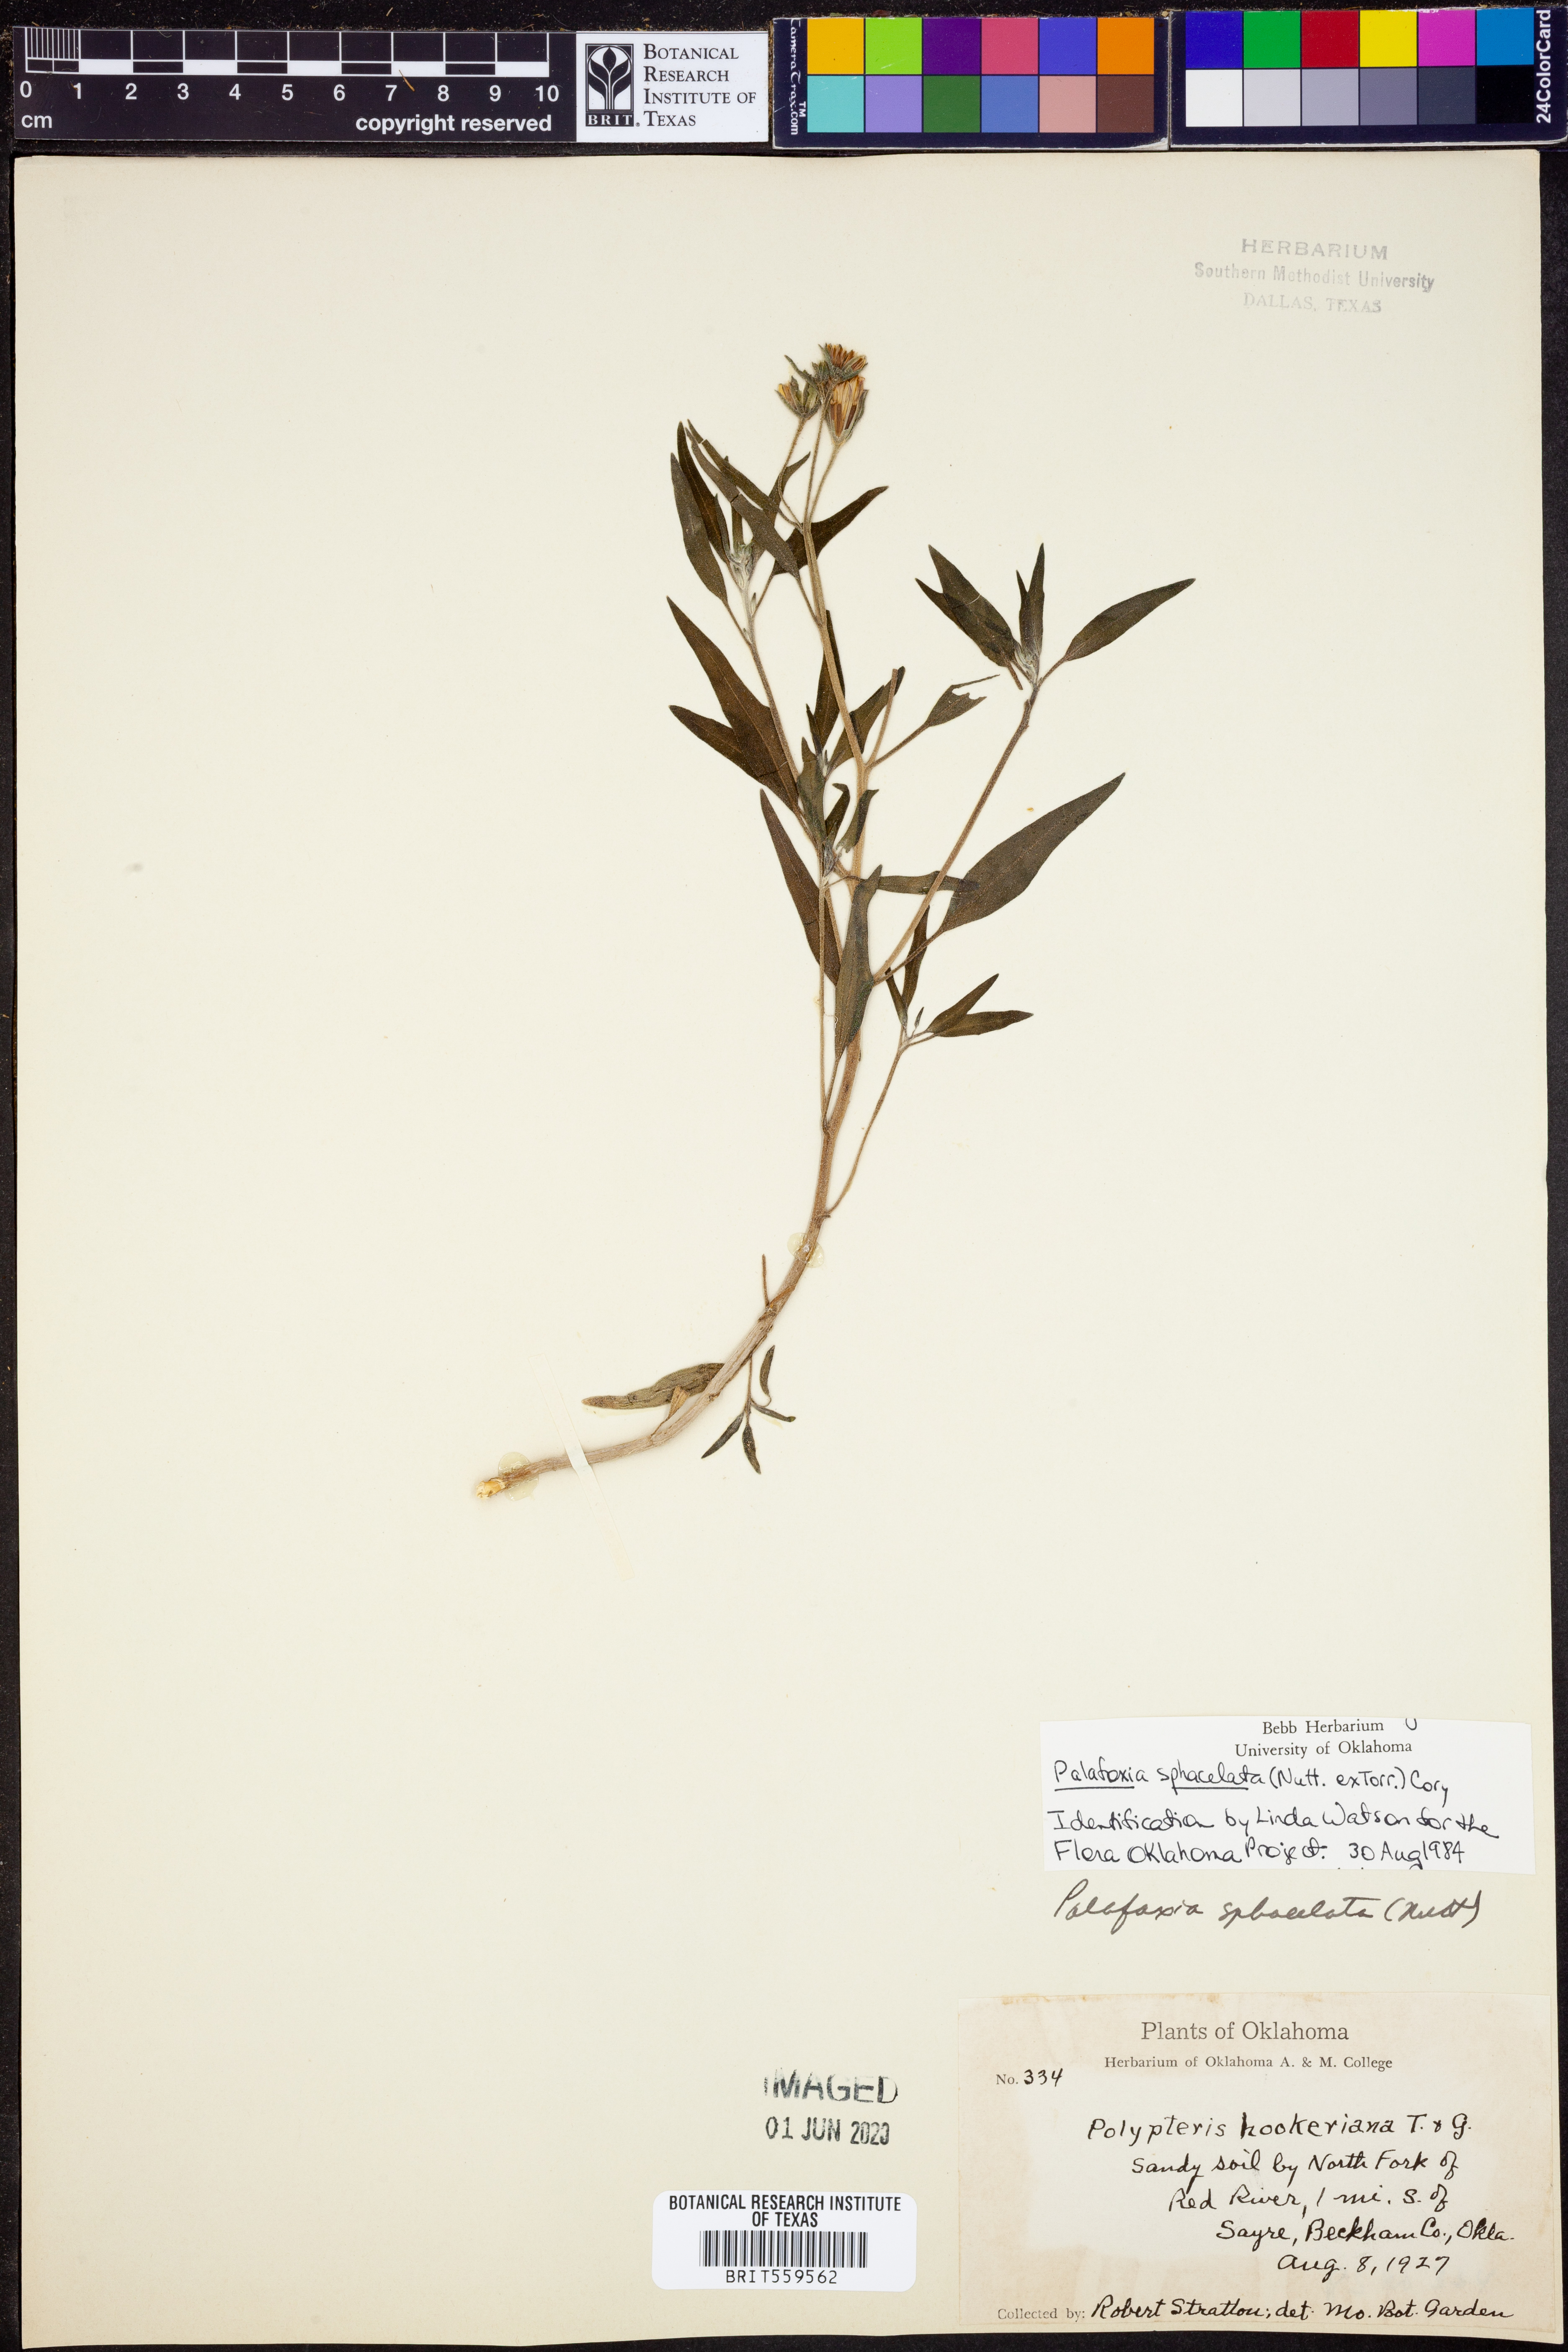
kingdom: Plantae
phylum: Tracheophyta
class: Magnoliopsida
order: Asterales
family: Asteraceae
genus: Palafoxia
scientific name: Palafoxia sphacelata
